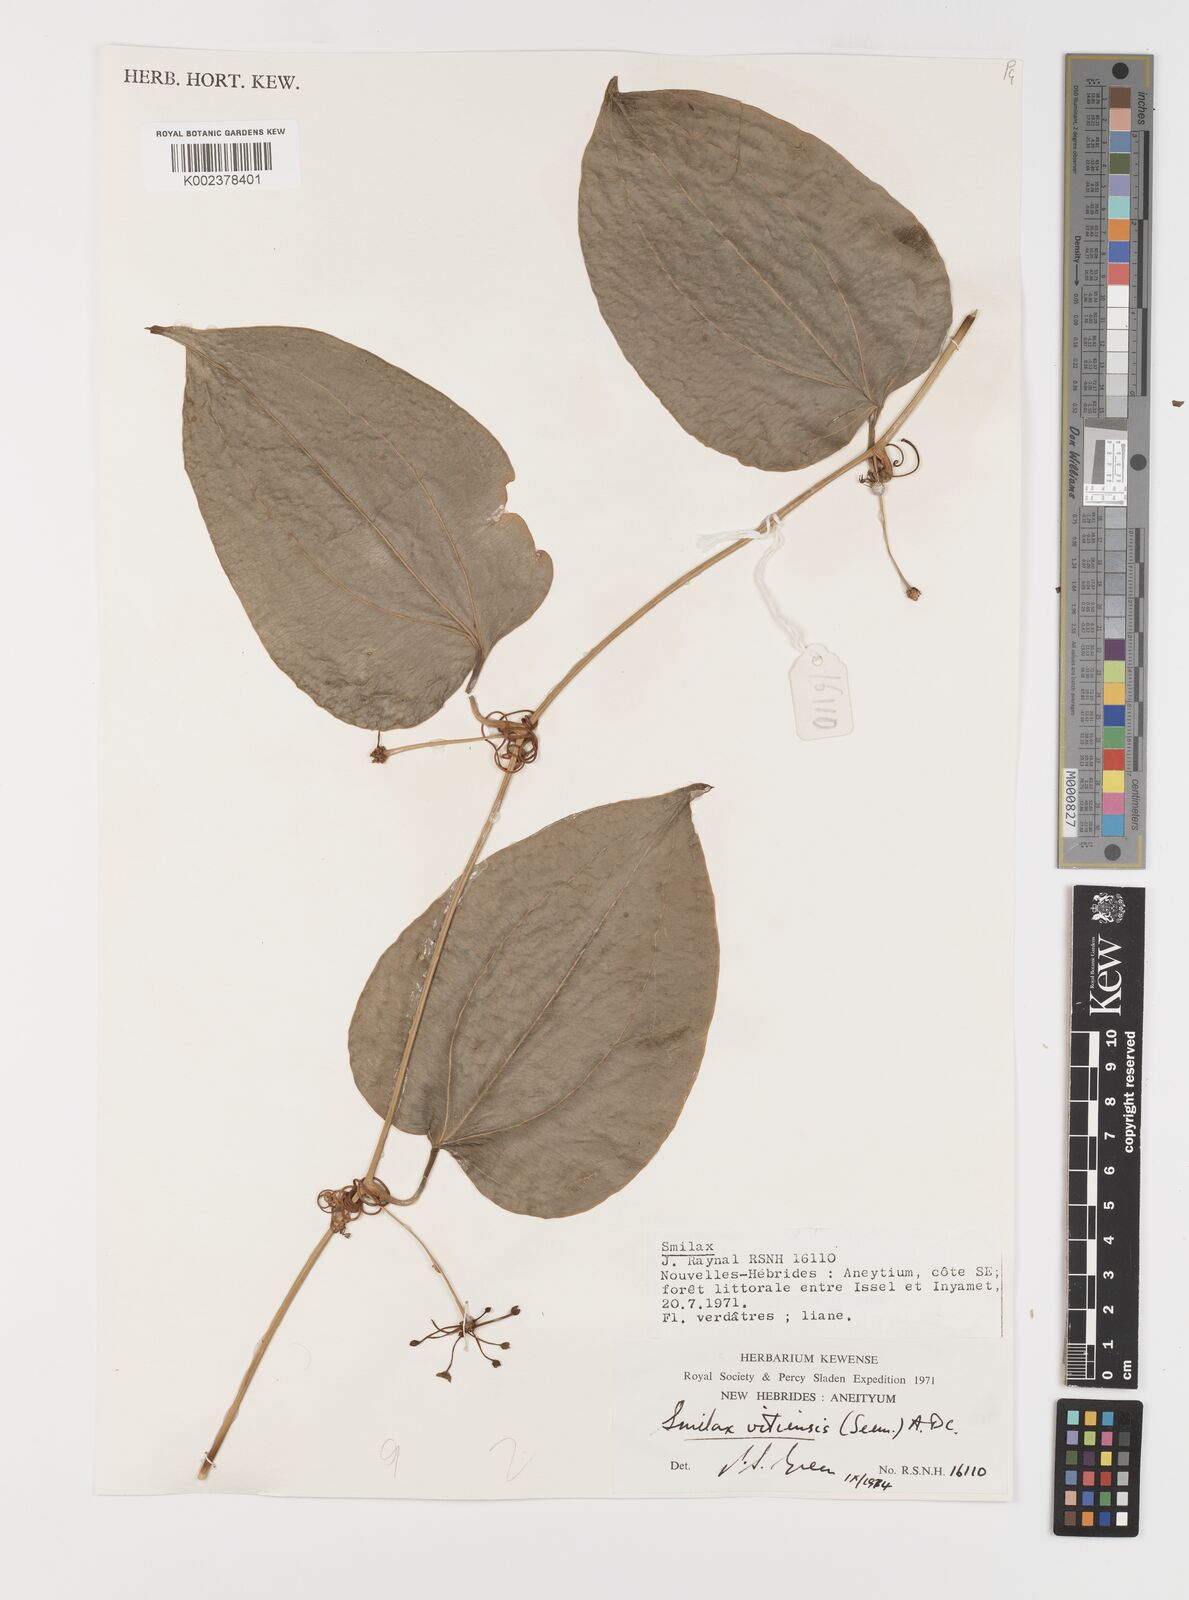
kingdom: Plantae
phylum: Tracheophyta
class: Liliopsida
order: Liliales
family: Smilacaceae
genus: Smilax
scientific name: Smilax vitiensis
